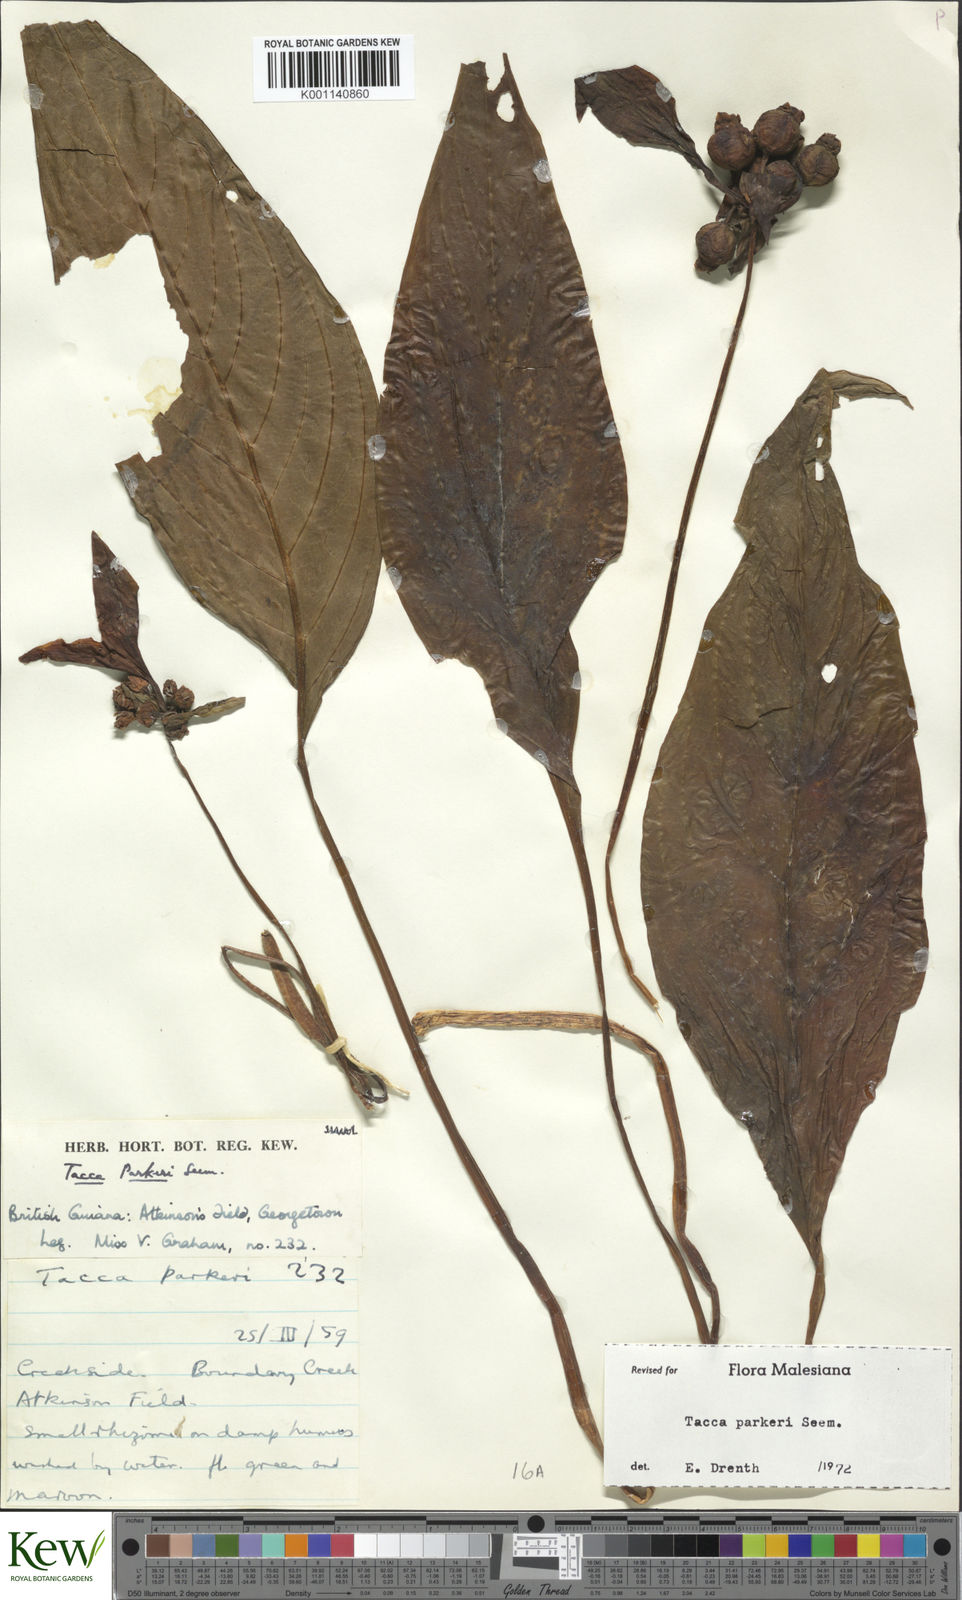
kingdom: Plantae
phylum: Tracheophyta
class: Liliopsida
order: Dioscoreales
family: Dioscoreaceae
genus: Tacca
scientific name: Tacca parkeri
